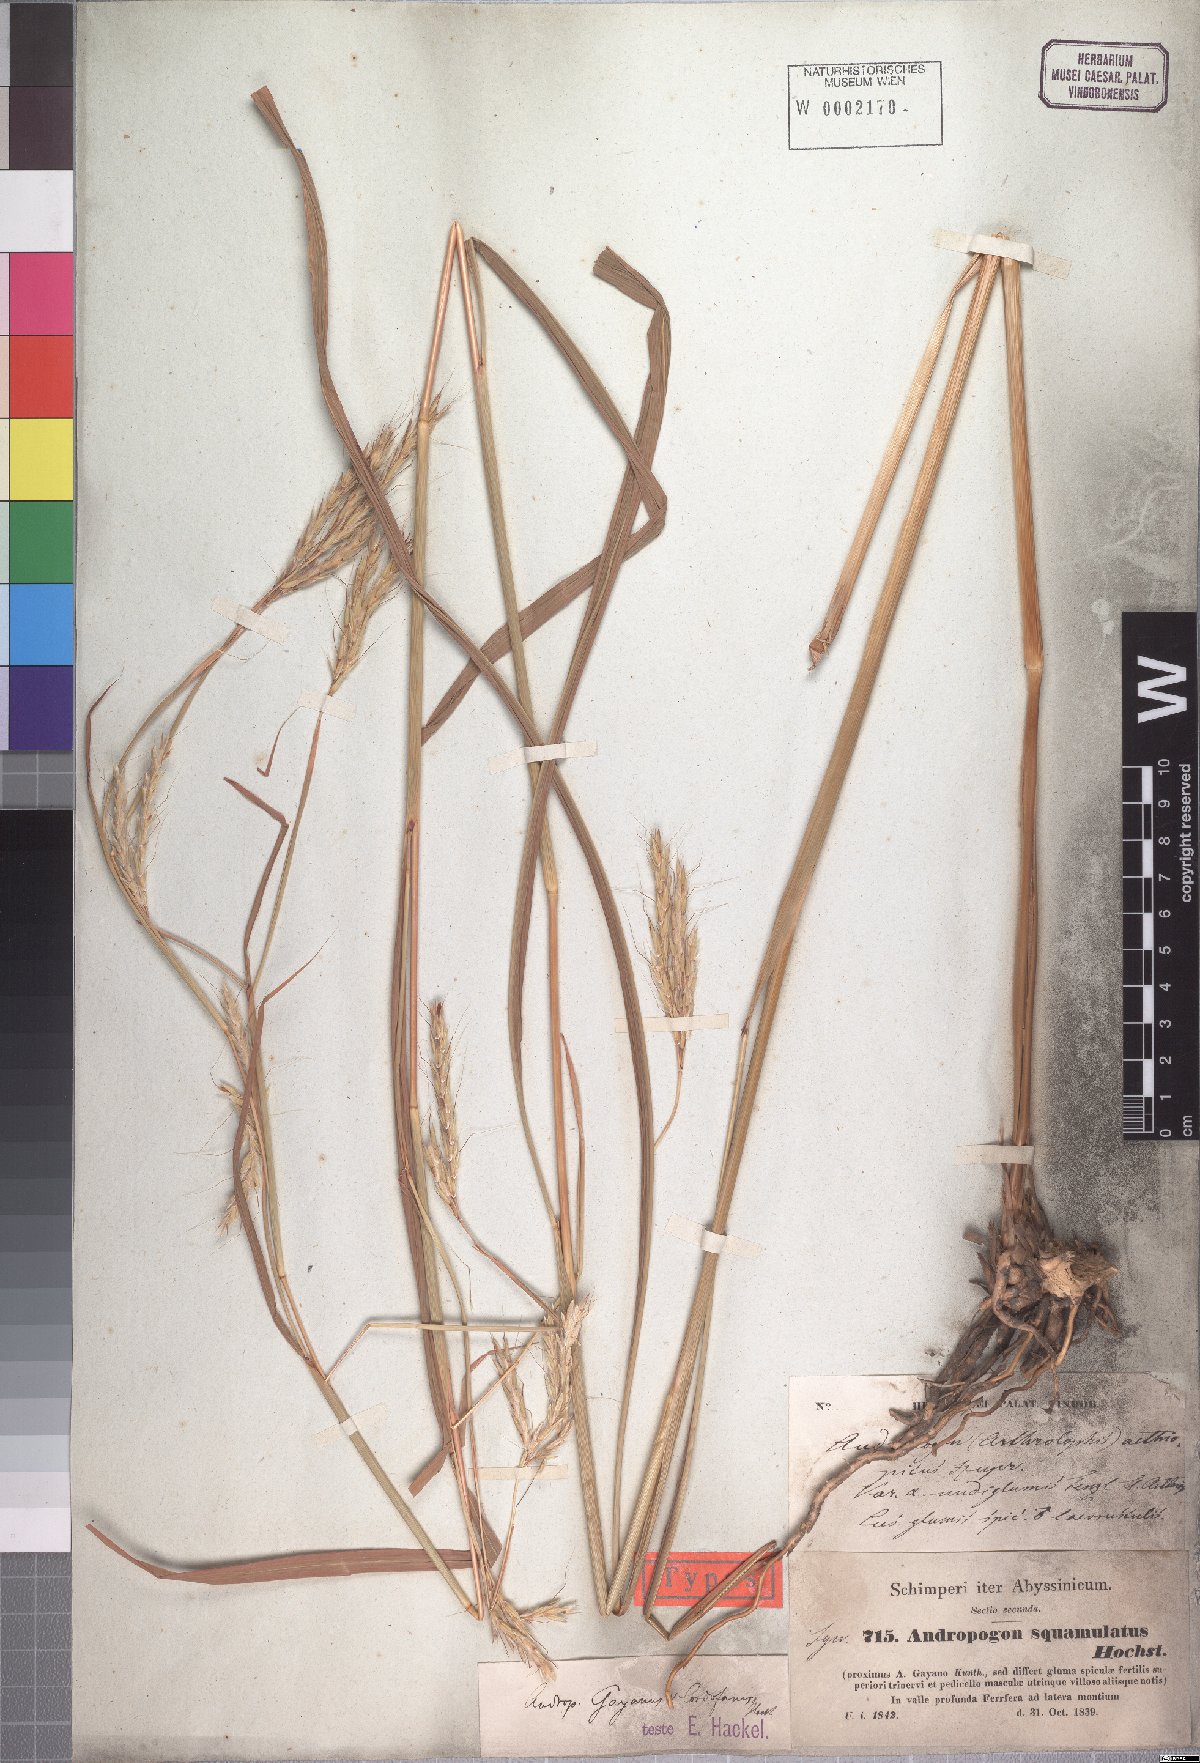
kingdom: Plantae
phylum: Tracheophyta
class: Liliopsida
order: Poales
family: Poaceae
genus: Andropogon
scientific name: Andropogon gayanus
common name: Tambuki grass
